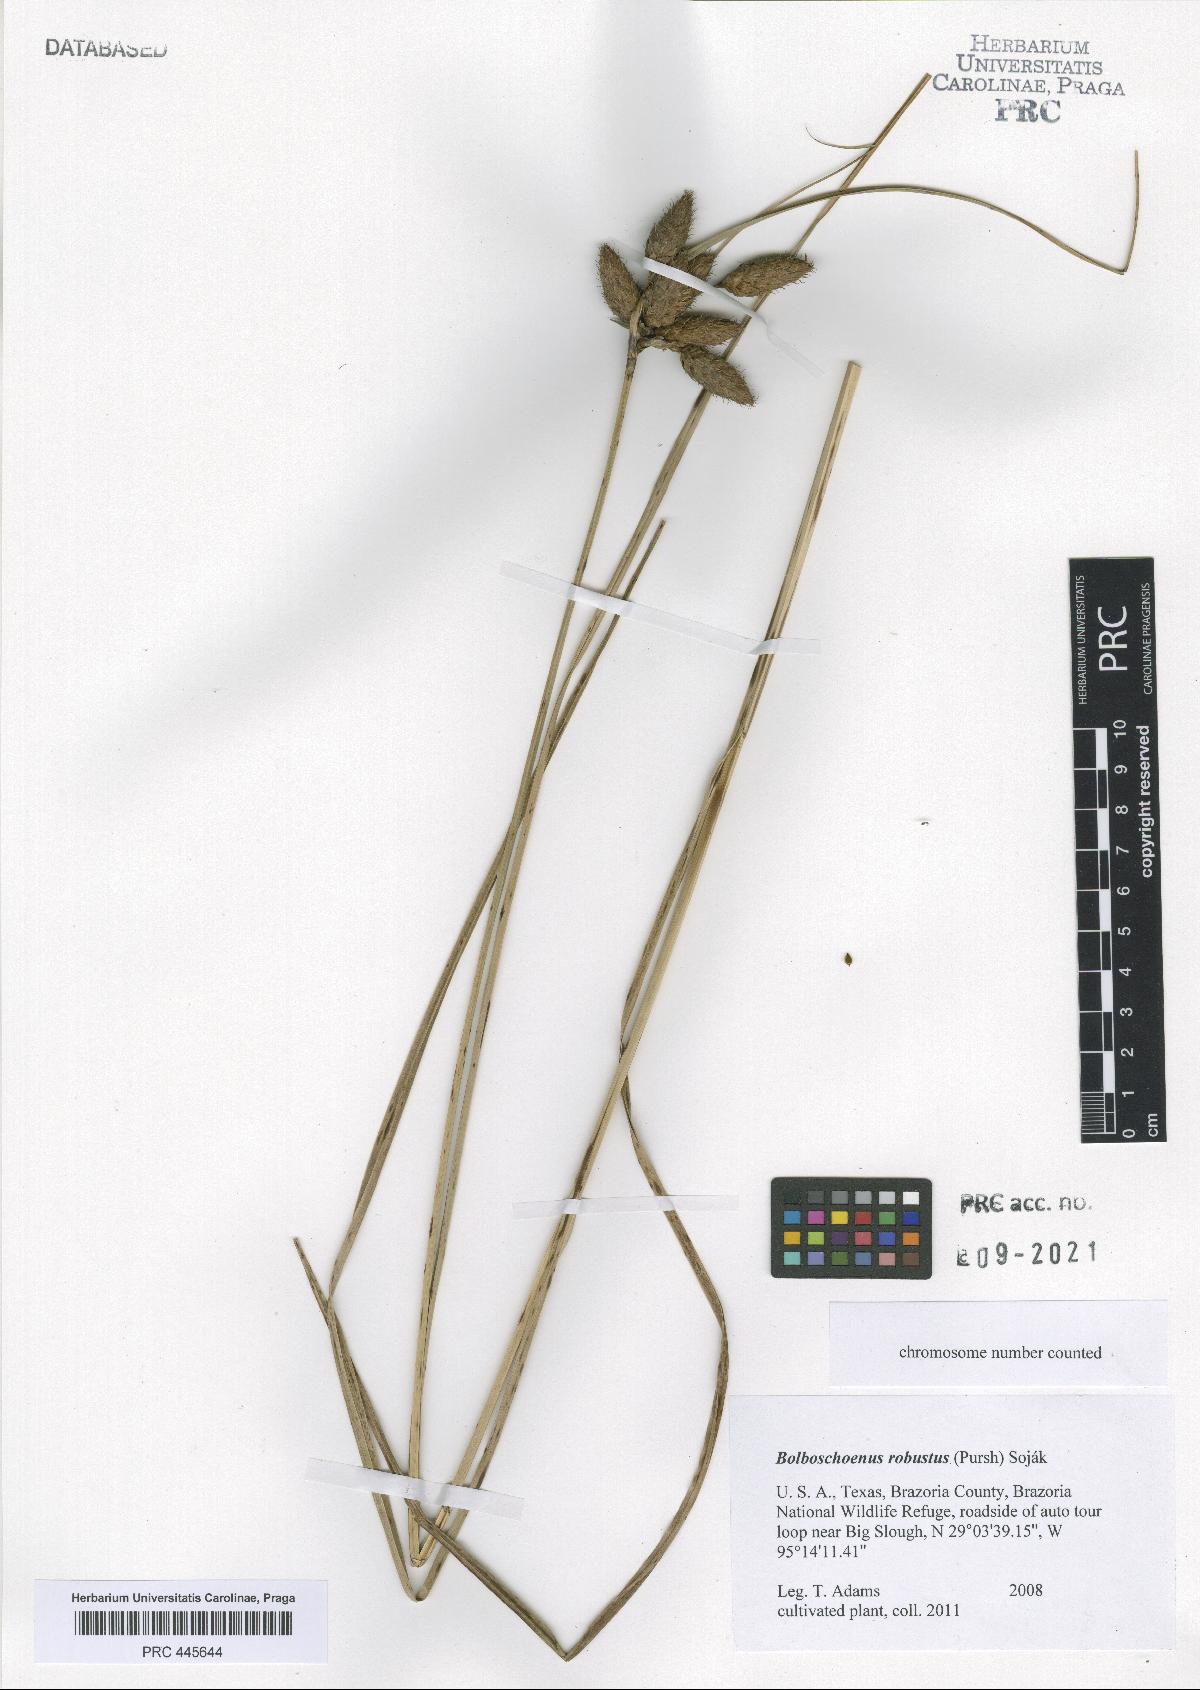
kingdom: Plantae
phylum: Tracheophyta
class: Liliopsida
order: Poales
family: Cyperaceae
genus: Bolboschoenus
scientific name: Bolboschoenus robustus
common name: Seacoast bulrush
